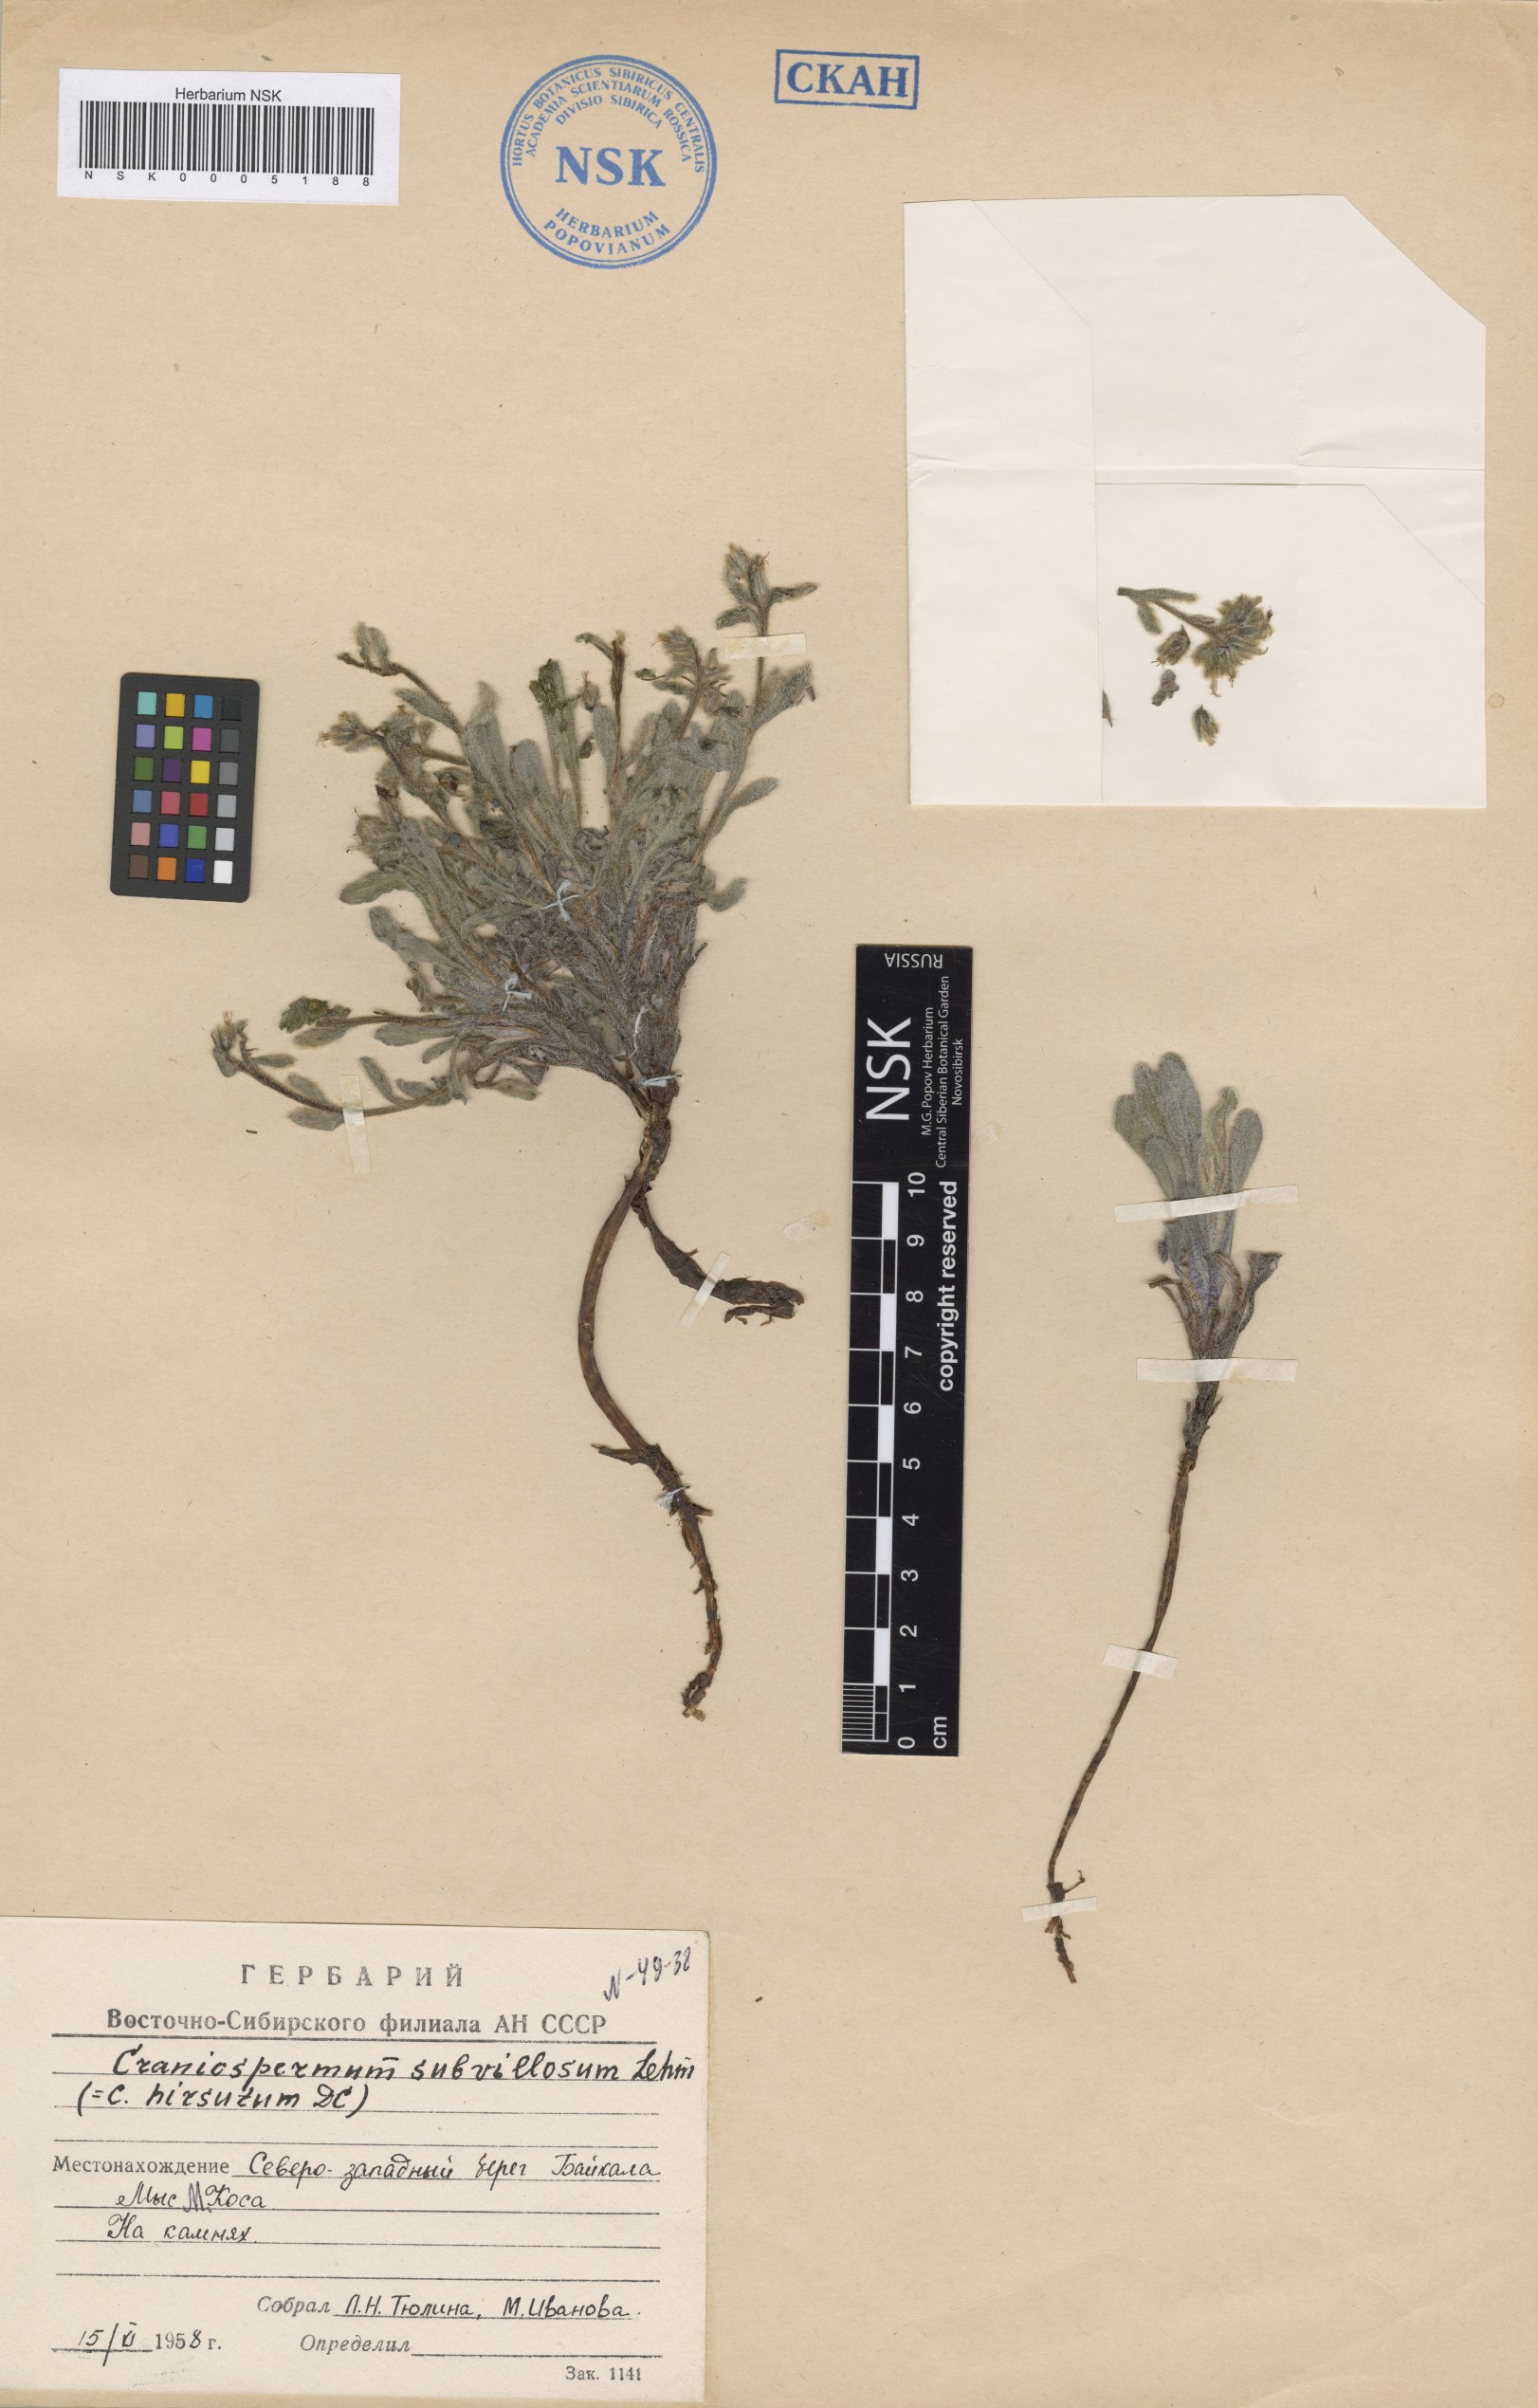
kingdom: Plantae
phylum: Tracheophyta
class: Magnoliopsida
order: Boraginales
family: Boraginaceae
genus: Craniospermum
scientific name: Craniospermum subvillosum
